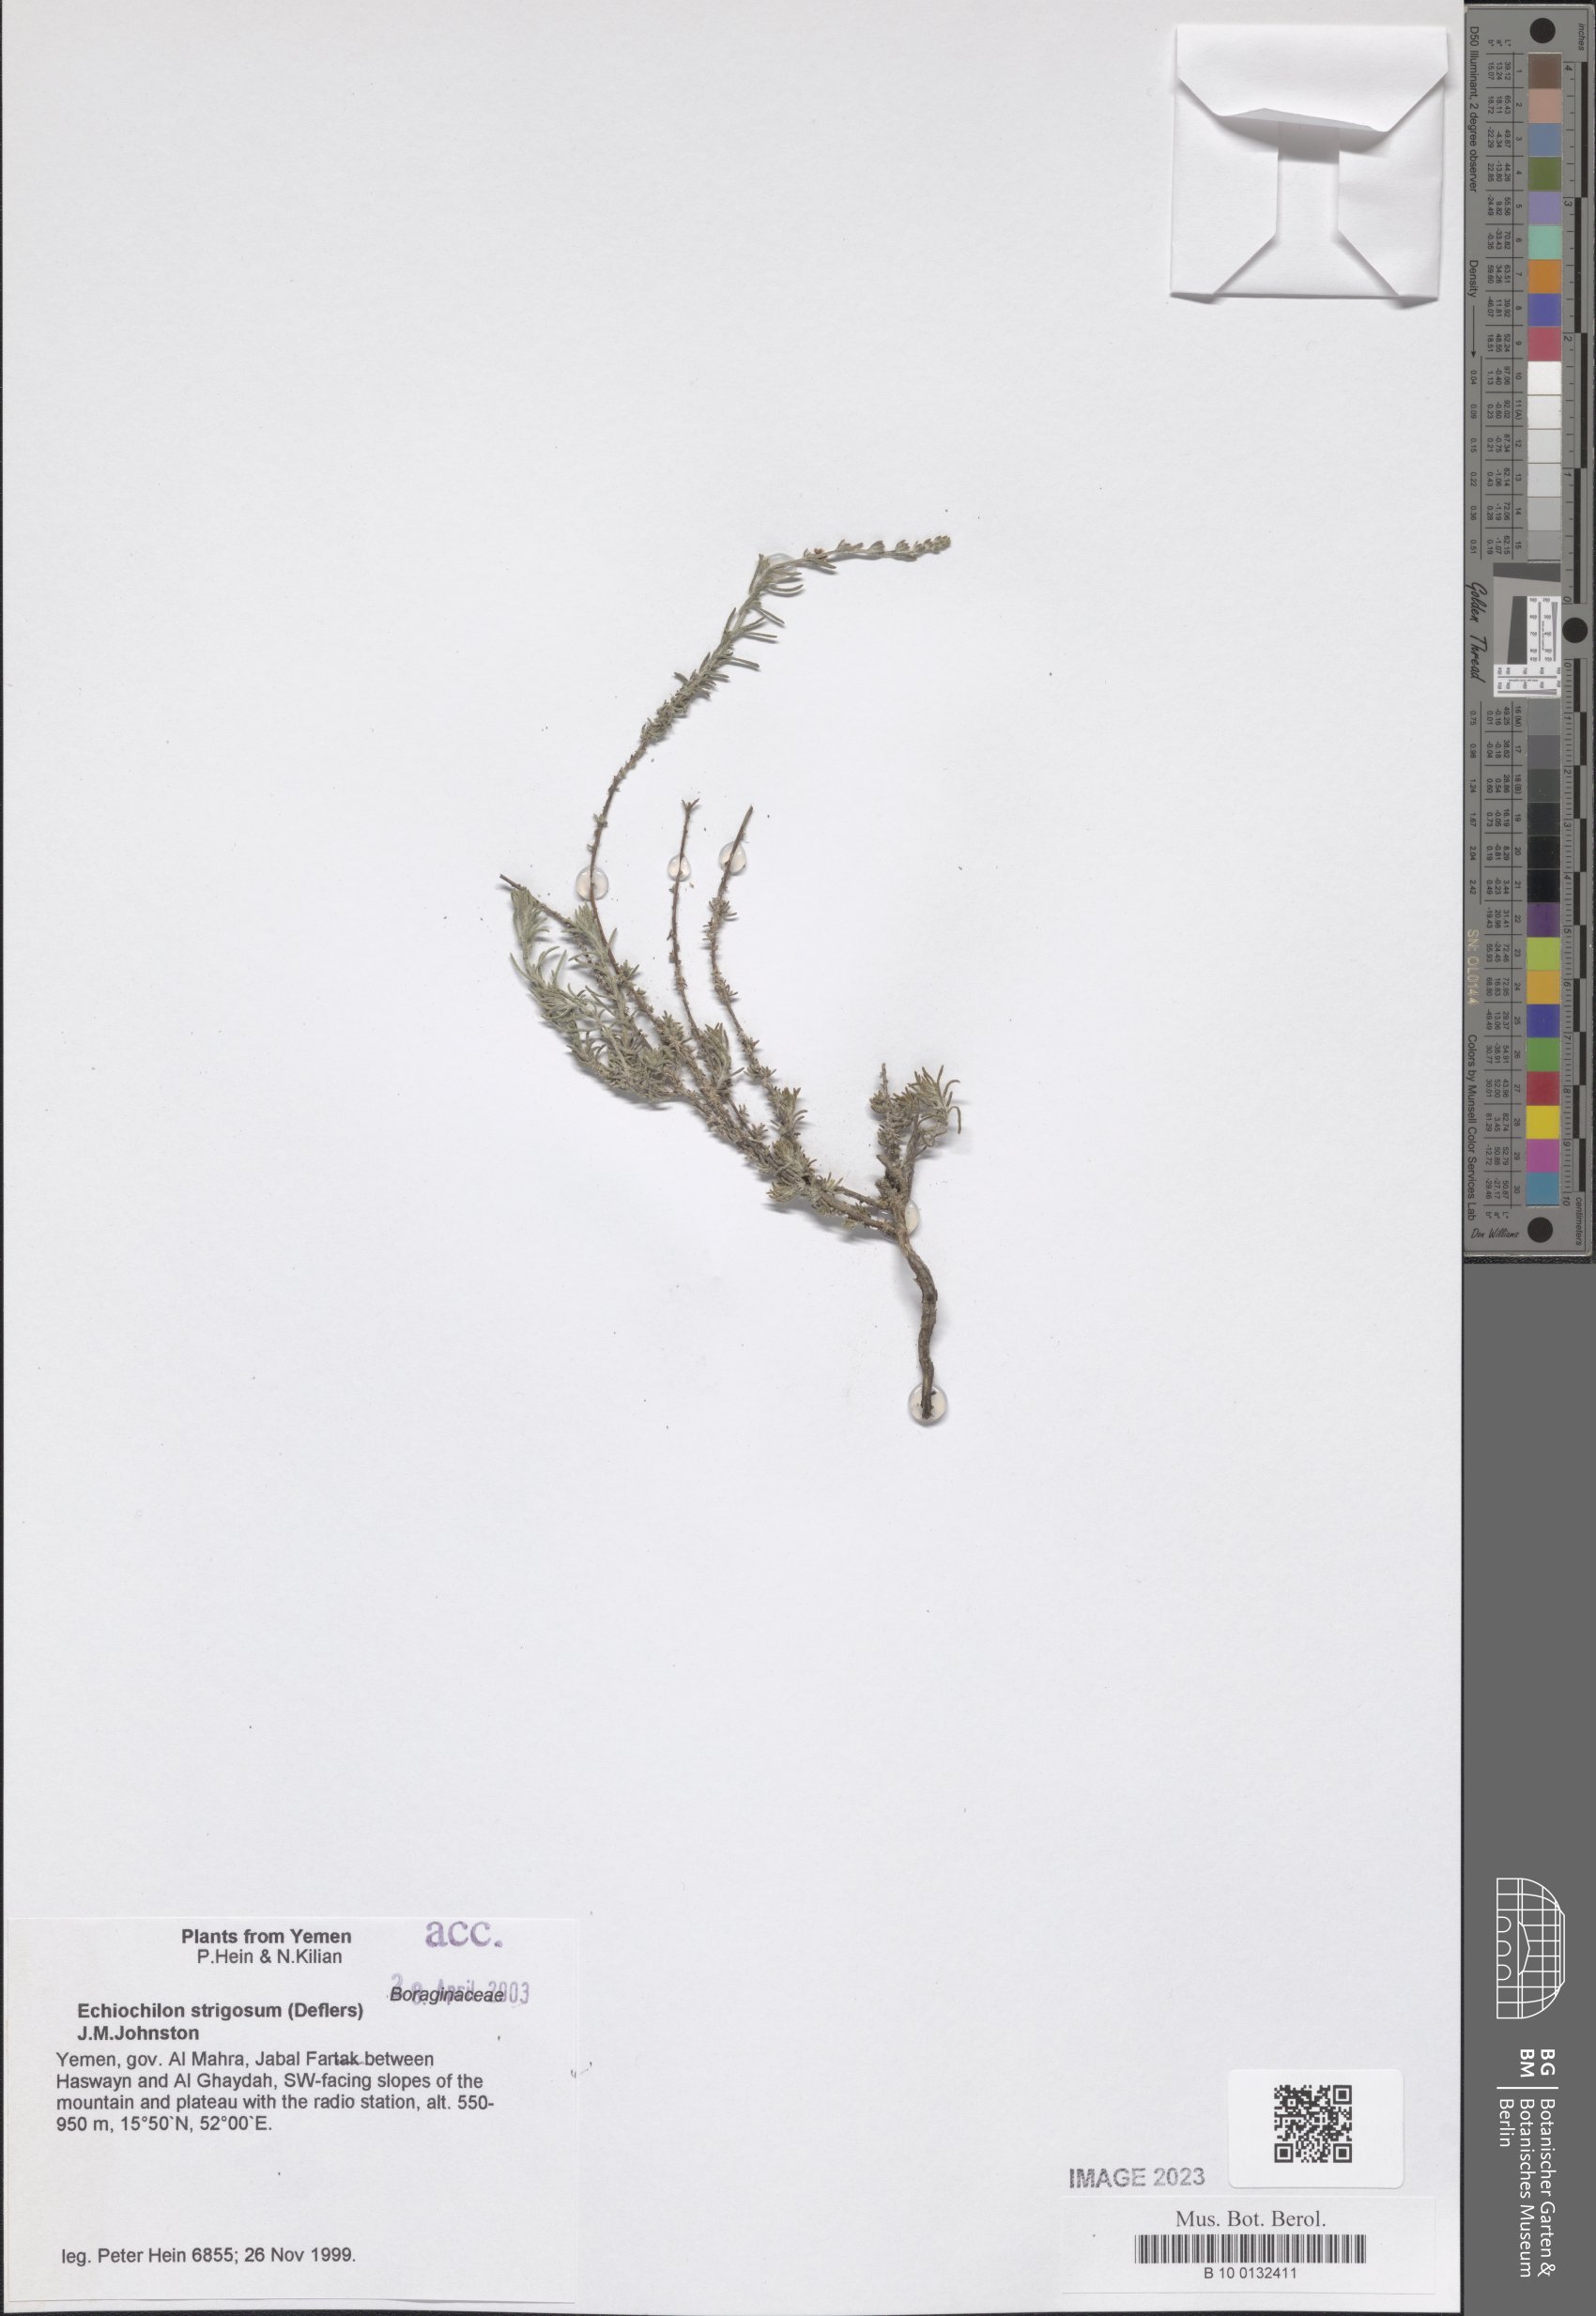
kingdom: Plantae
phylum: Tracheophyta
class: Magnoliopsida
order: Boraginales
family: Boraginaceae
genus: Echiochilon
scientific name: Echiochilon persicum
